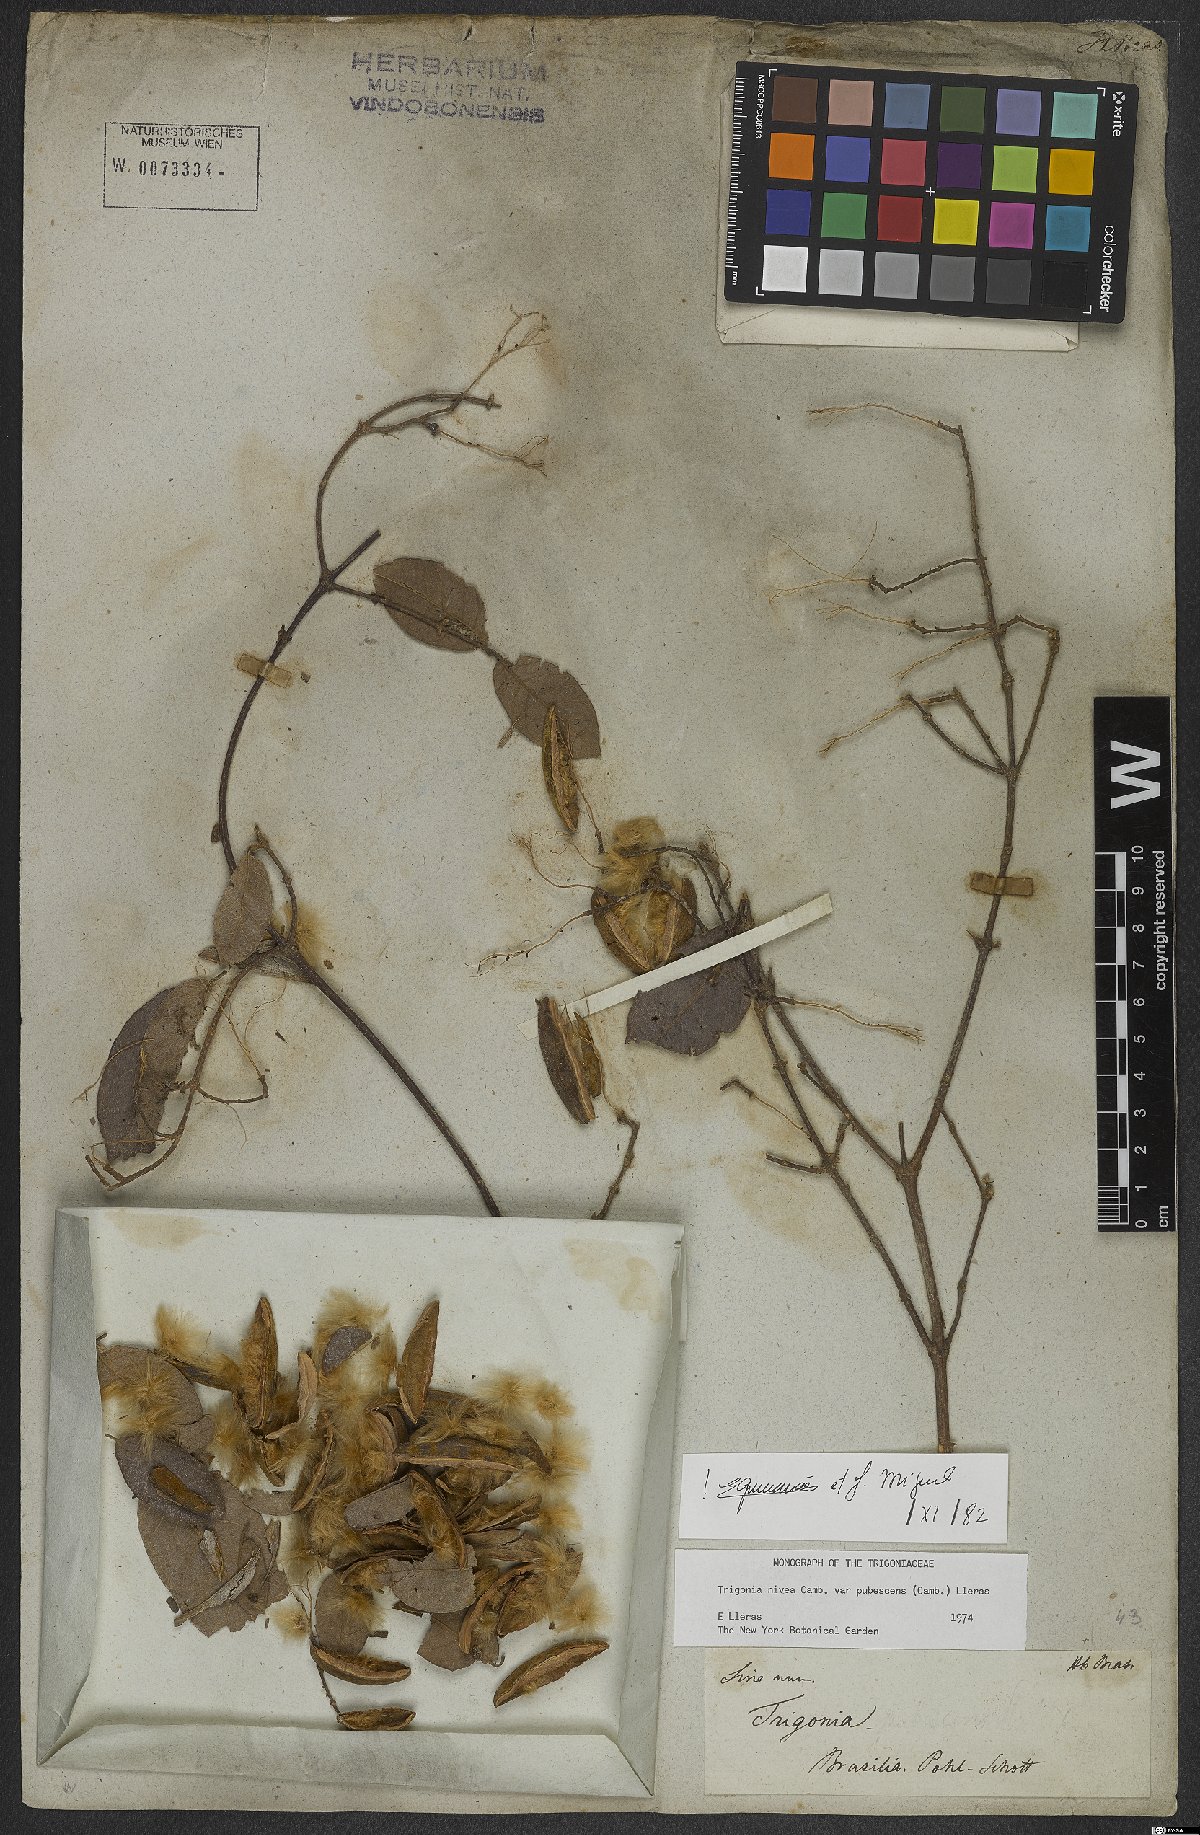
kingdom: Plantae
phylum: Tracheophyta
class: Magnoliopsida
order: Malpighiales
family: Trigoniaceae
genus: Trigonia
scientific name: Trigonia nivea
